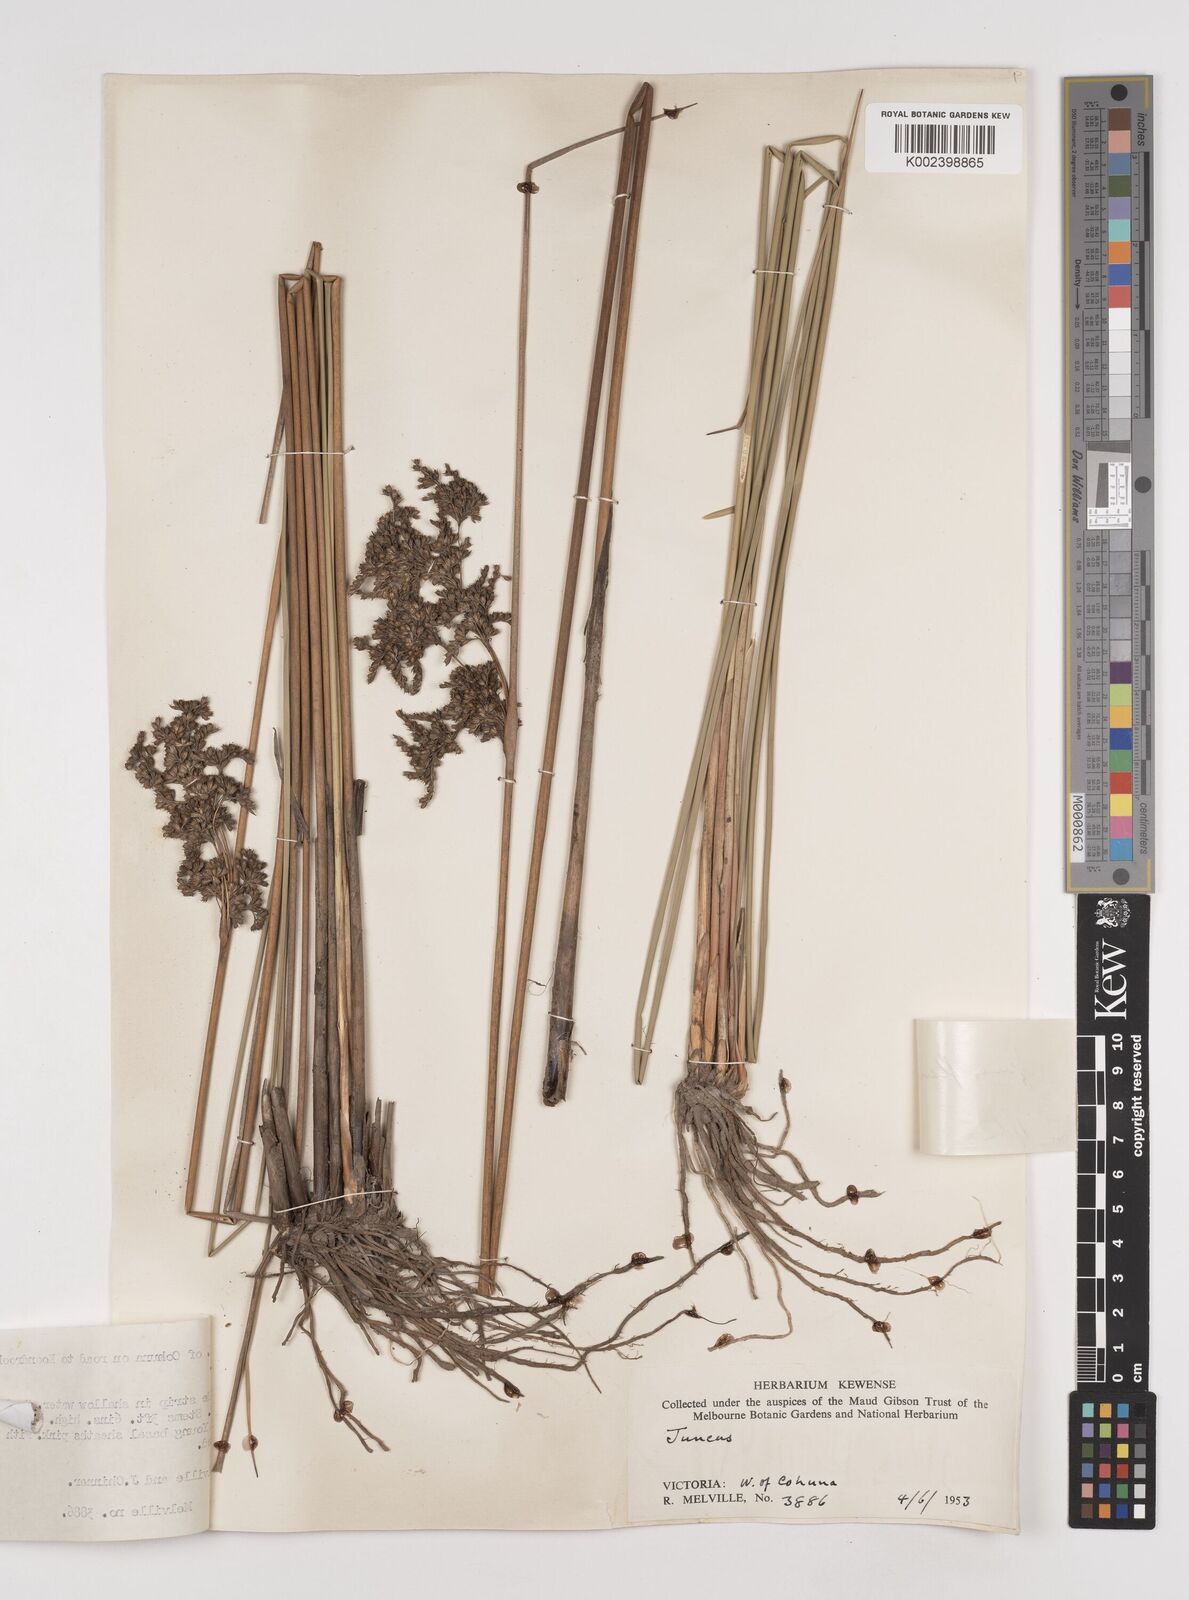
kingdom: Plantae
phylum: Tracheophyta
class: Liliopsida
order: Poales
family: Juncaceae
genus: Juncus
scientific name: Juncus flavidus
